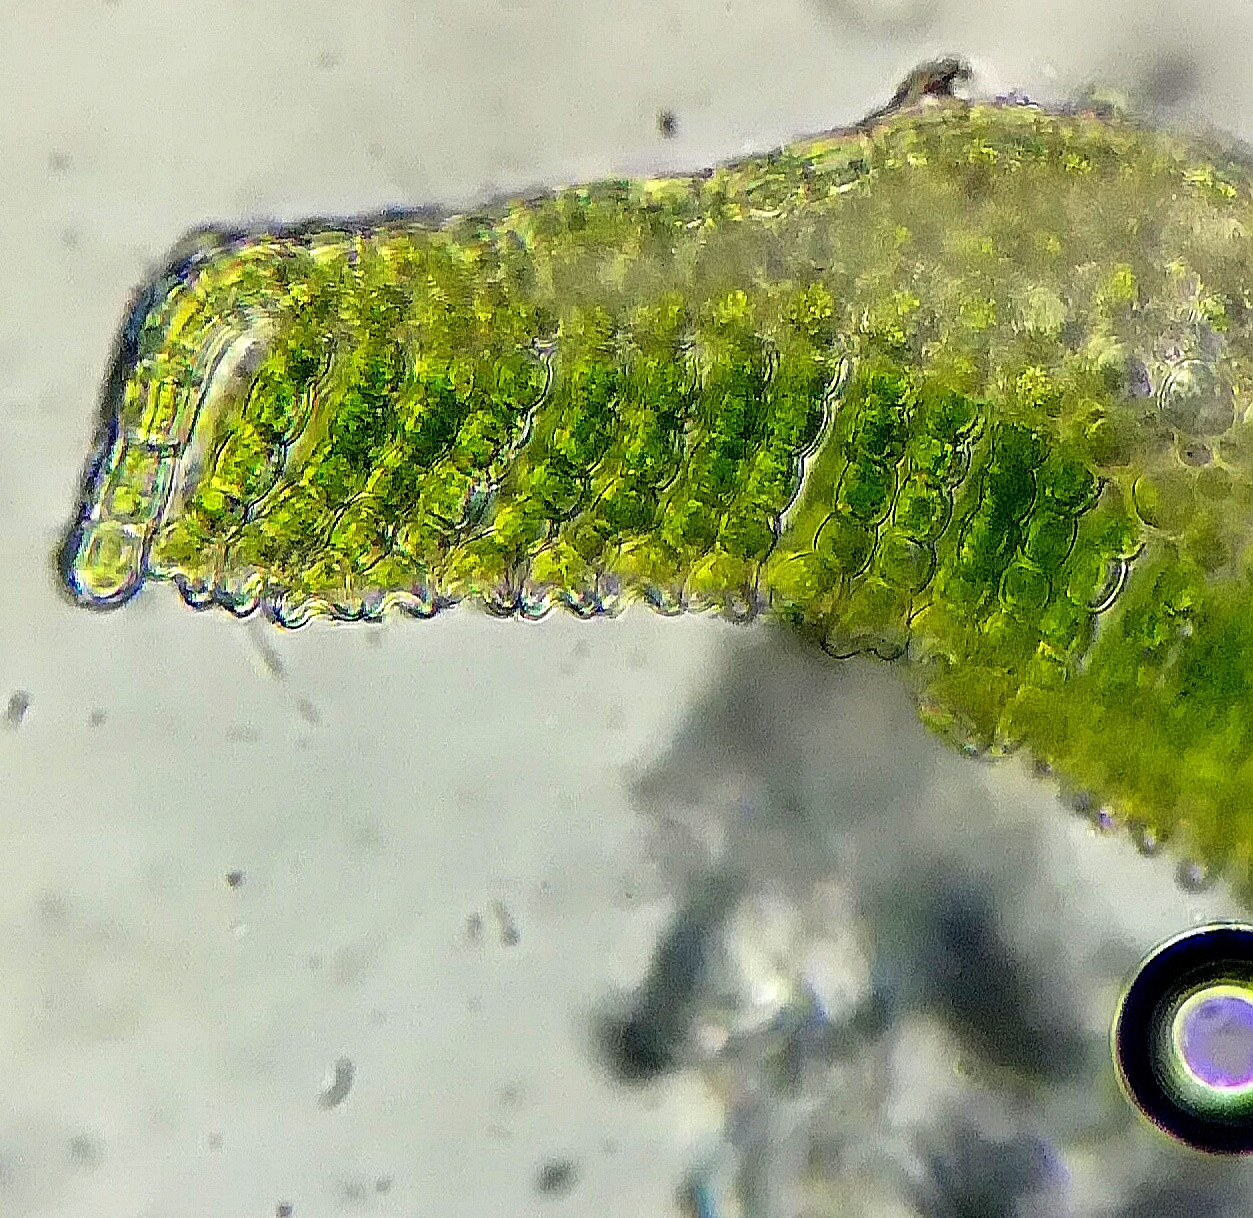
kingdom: Plantae
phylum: Bryophyta
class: Polytrichopsida
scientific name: Polytrichopsida
